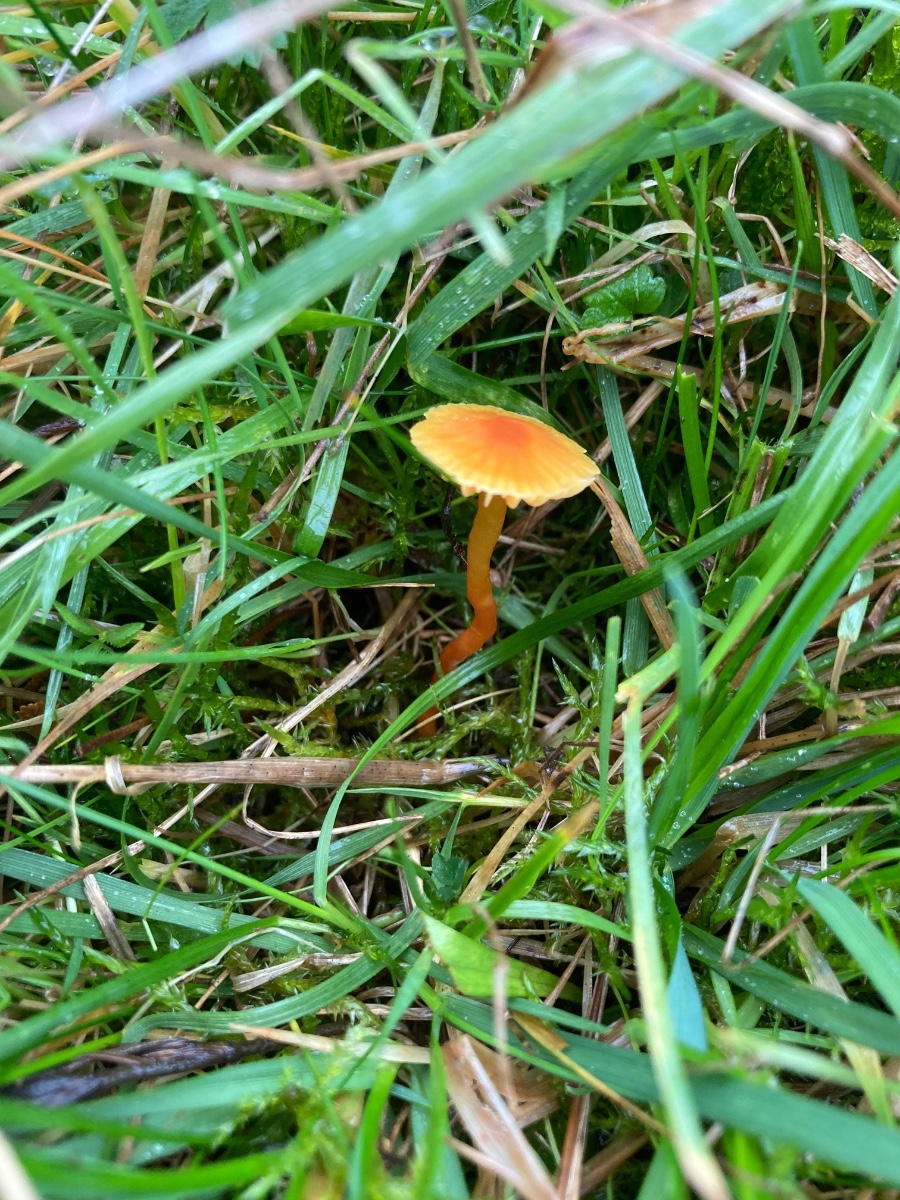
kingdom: Fungi
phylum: Basidiomycota
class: Agaricomycetes
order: Agaricales
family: Hygrophoraceae
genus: Hygrocybe
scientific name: Hygrocybe mucronella
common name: bitter vokshat
